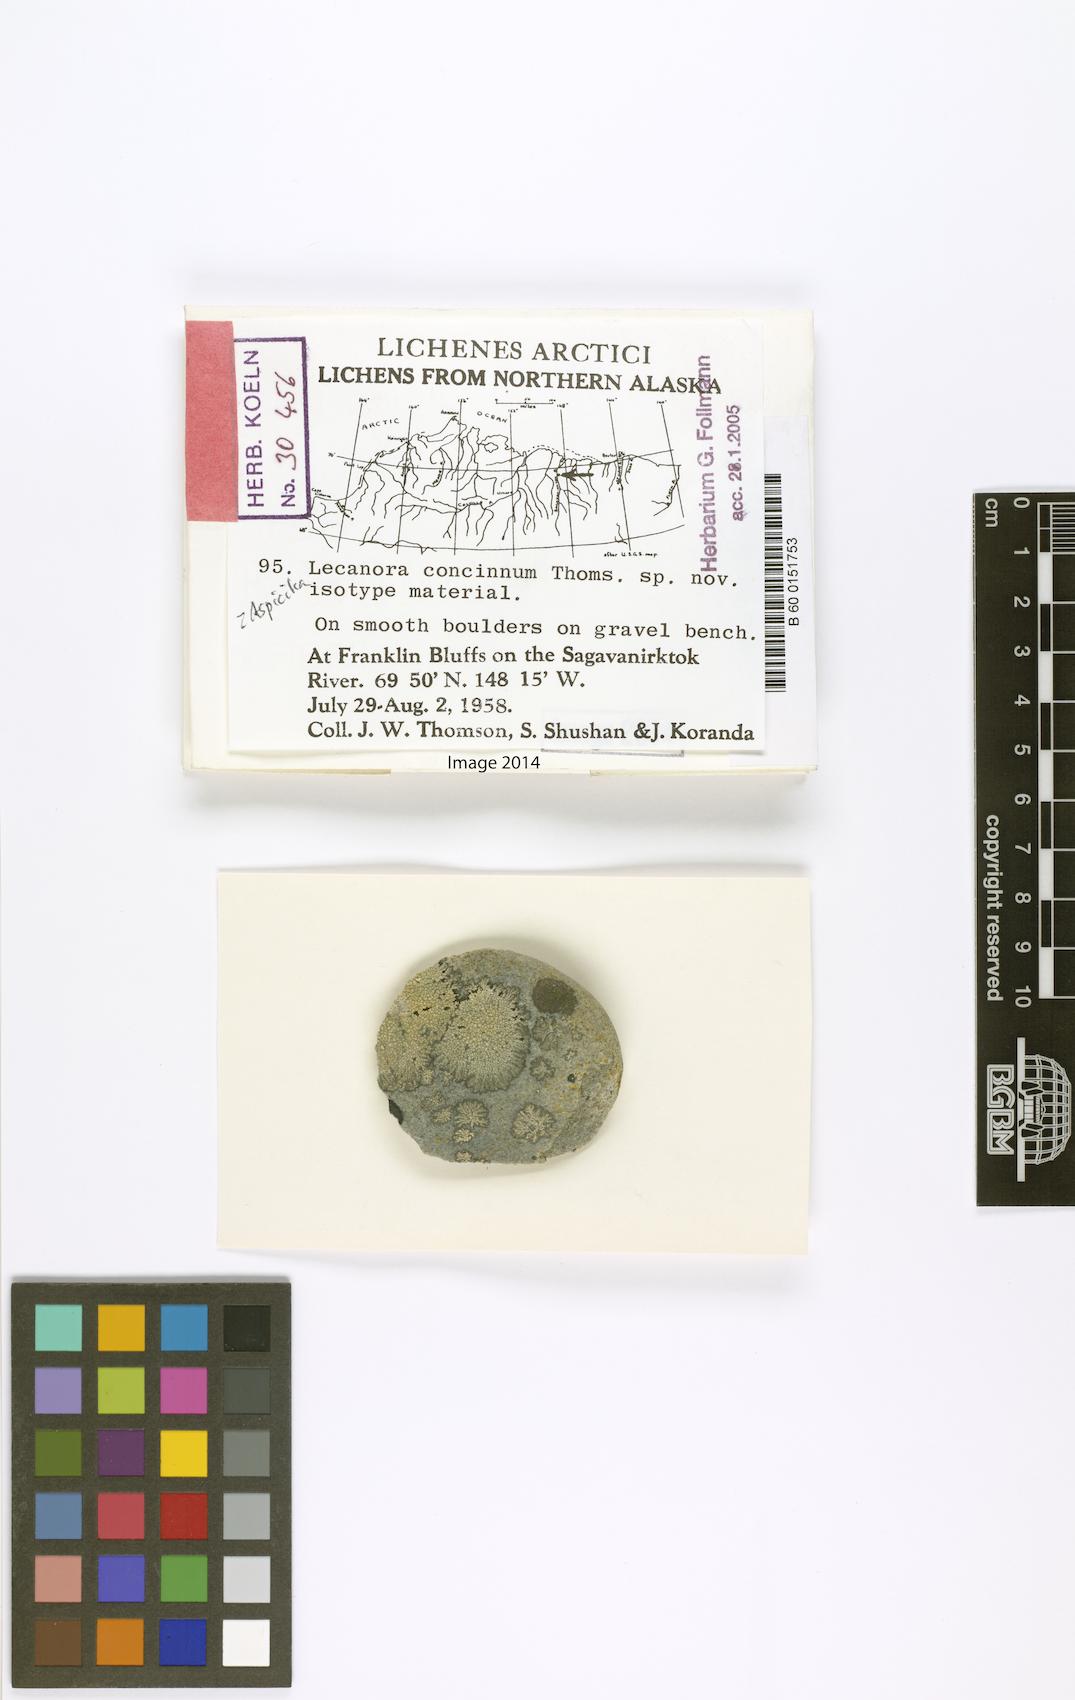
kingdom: Fungi
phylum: Ascomycota
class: Lecanoromycetes
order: Lecanorales
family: Lecanoraceae
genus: Lecanora
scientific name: Lecanora concinna
